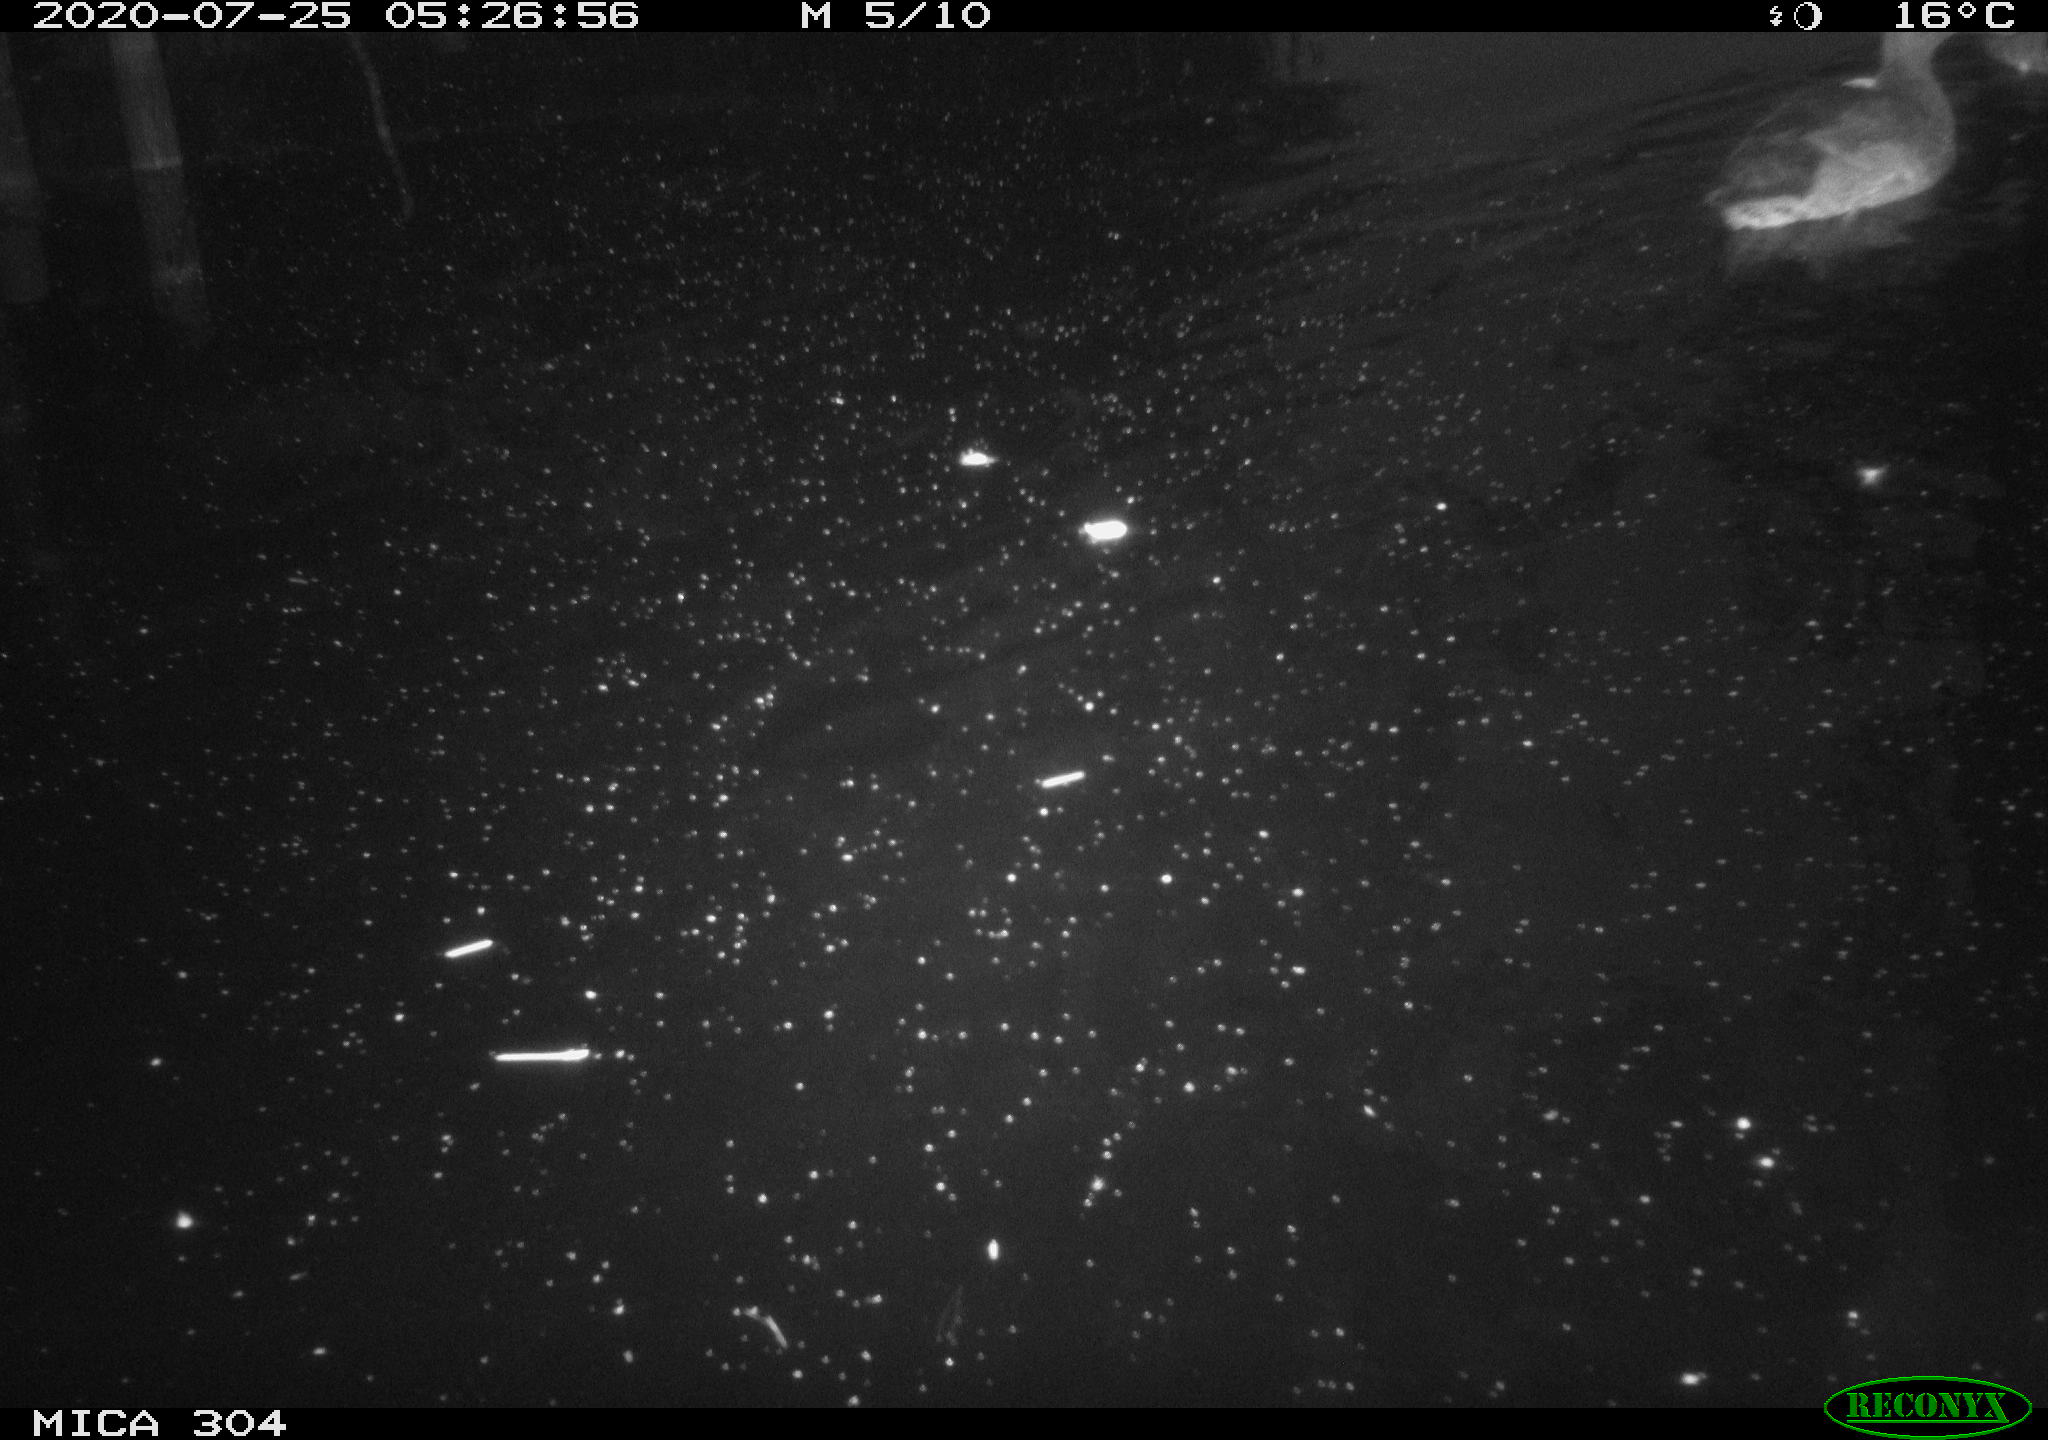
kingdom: Animalia
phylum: Chordata
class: Aves
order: Anseriformes
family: Anatidae
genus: Anas
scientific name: Anas platyrhynchos
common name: Mallard
